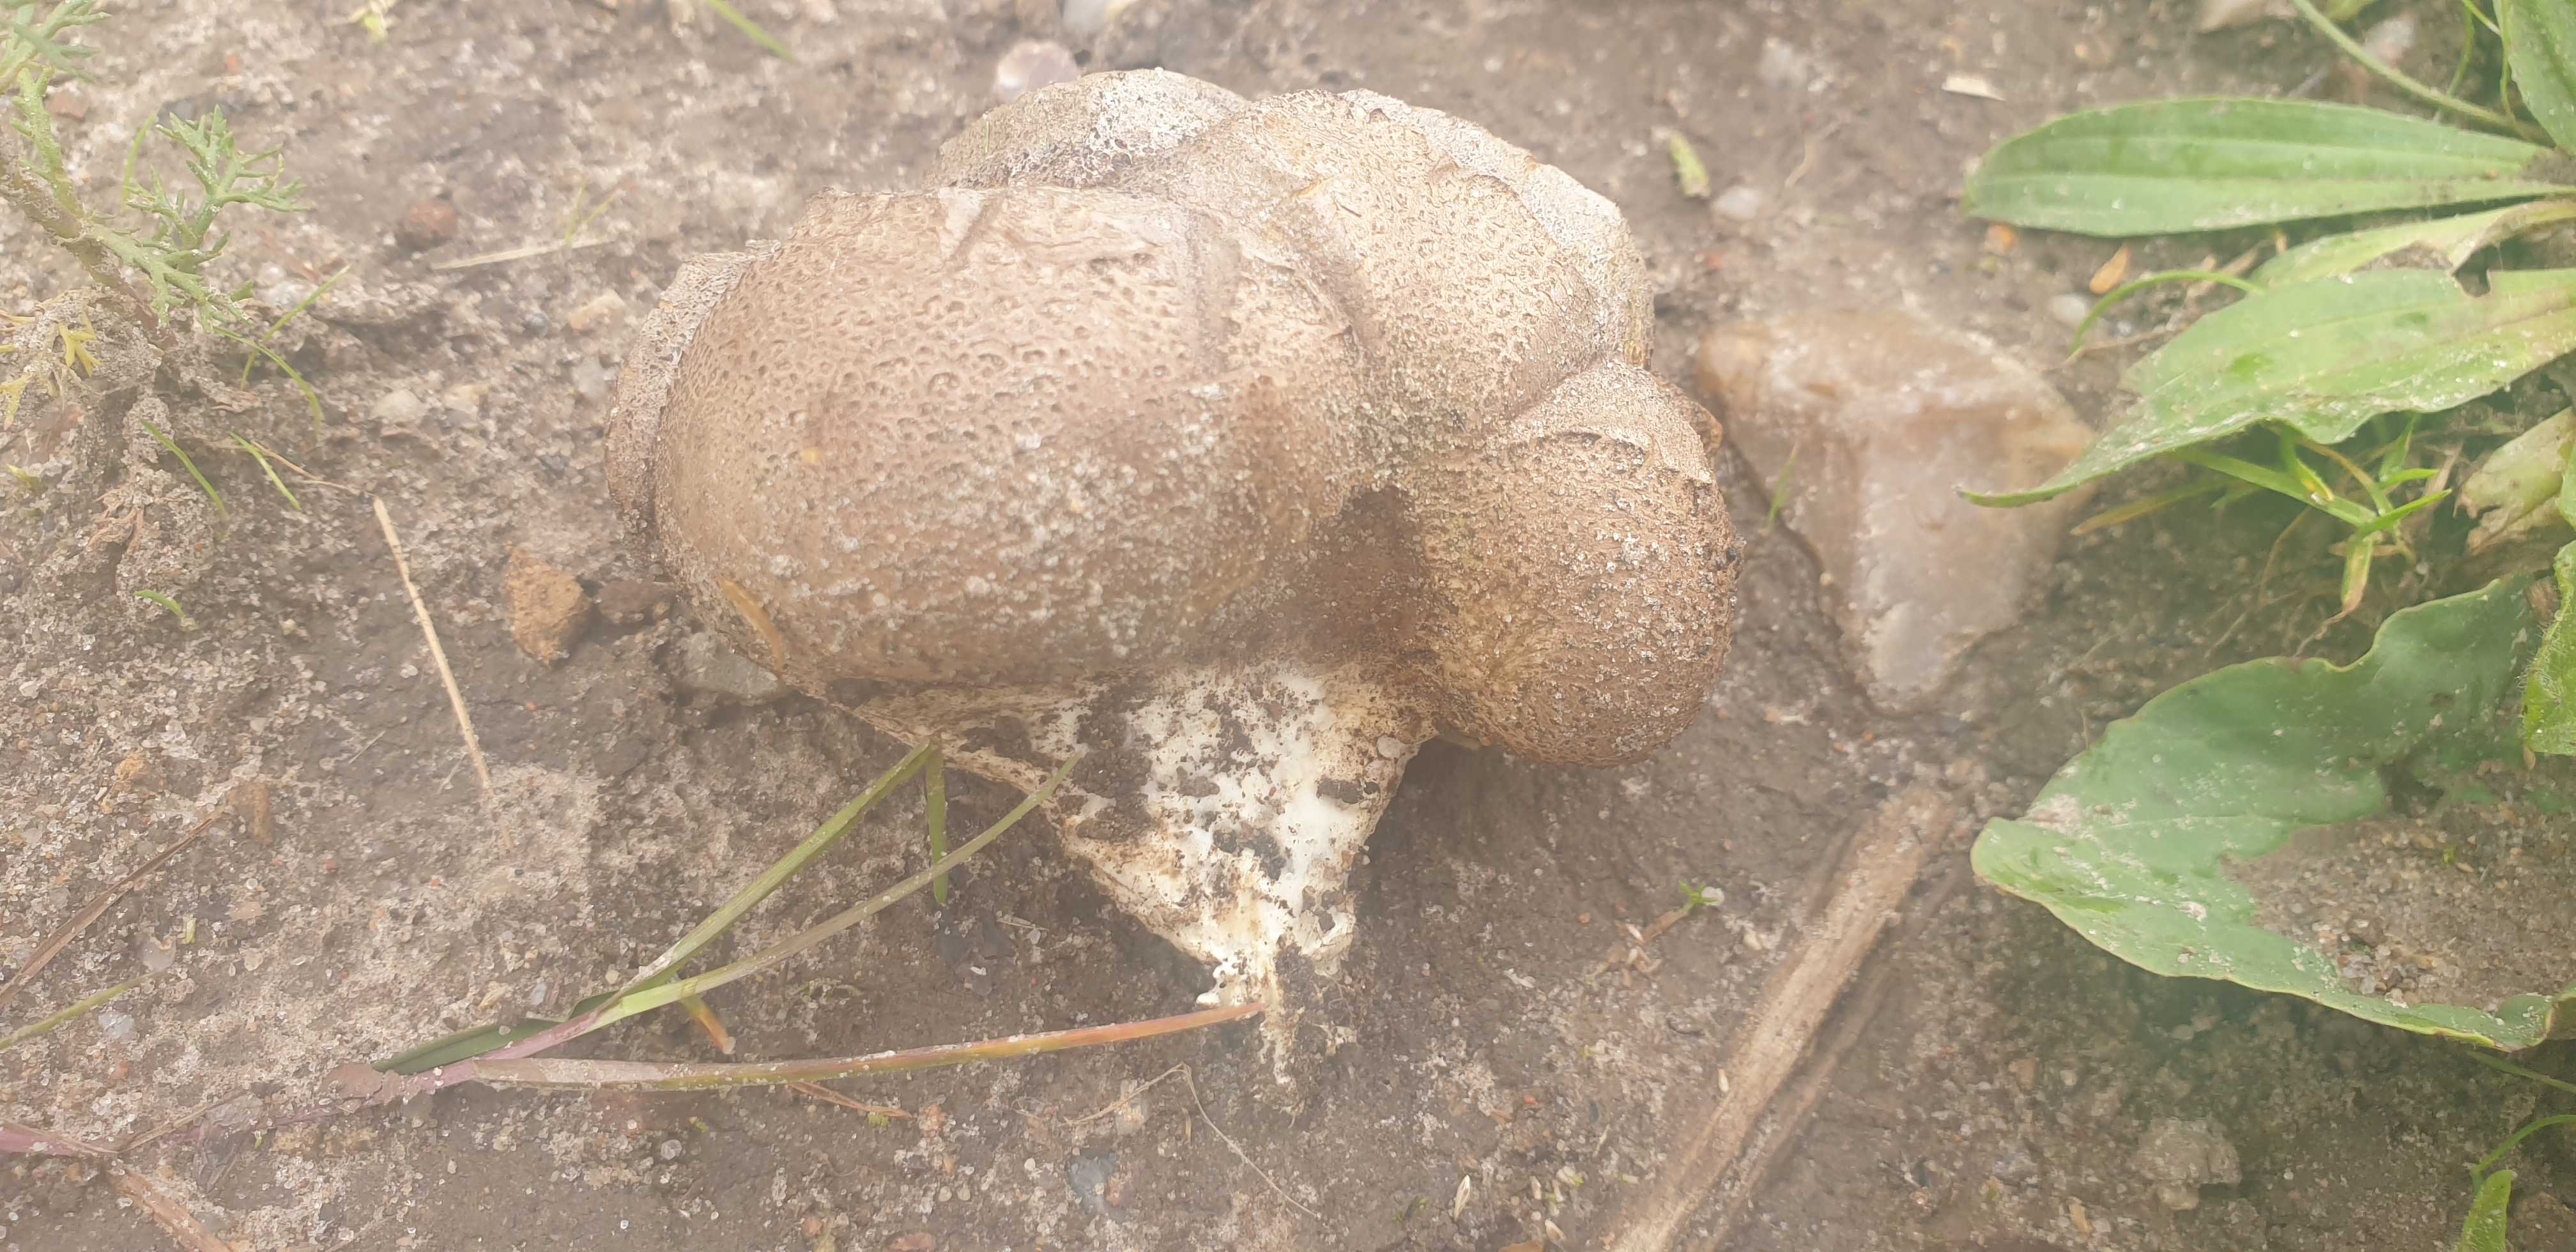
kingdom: Fungi
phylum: Basidiomycota
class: Agaricomycetes
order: Boletales
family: Sclerodermataceae
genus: Scleroderma
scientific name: Scleroderma bovista
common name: bovist-bruskbold
